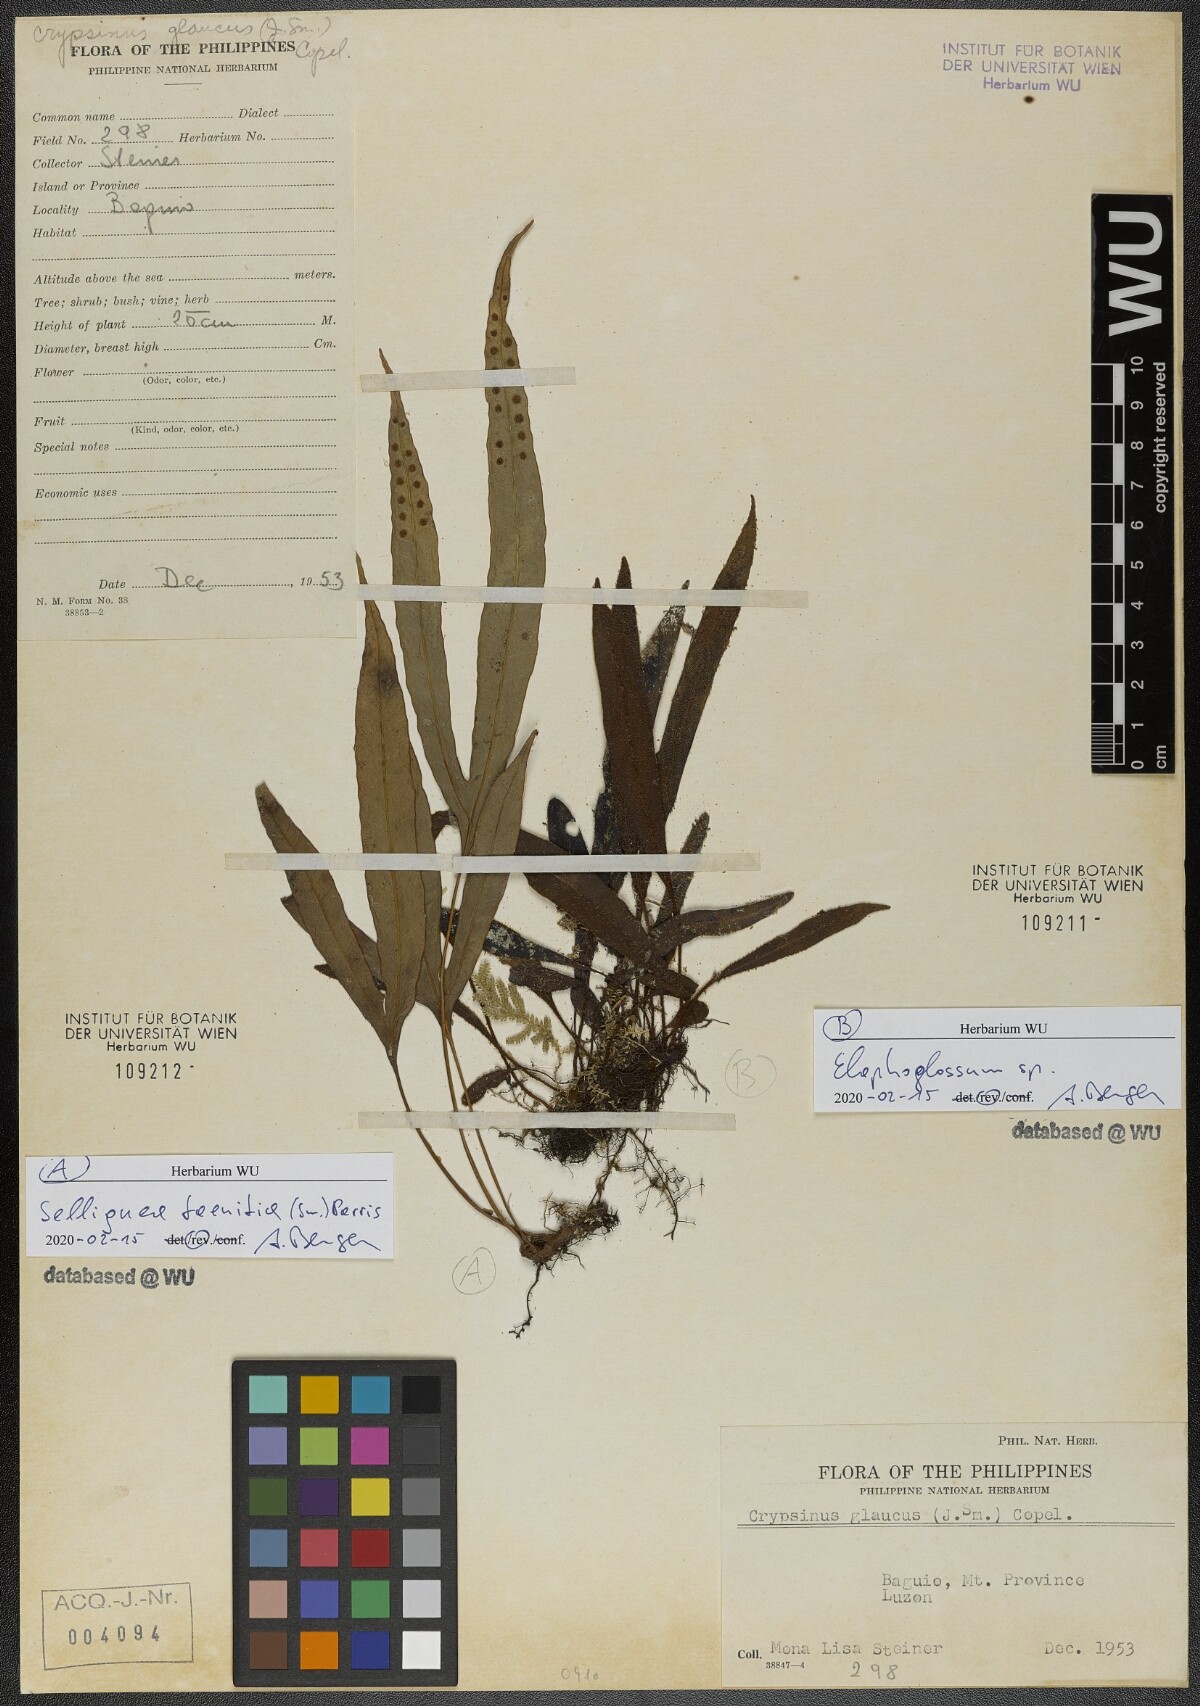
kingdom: Plantae
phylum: Tracheophyta
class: Polypodiopsida
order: Polypodiales
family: Polypodiaceae
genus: Selliguea
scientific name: Selliguea taeniata
